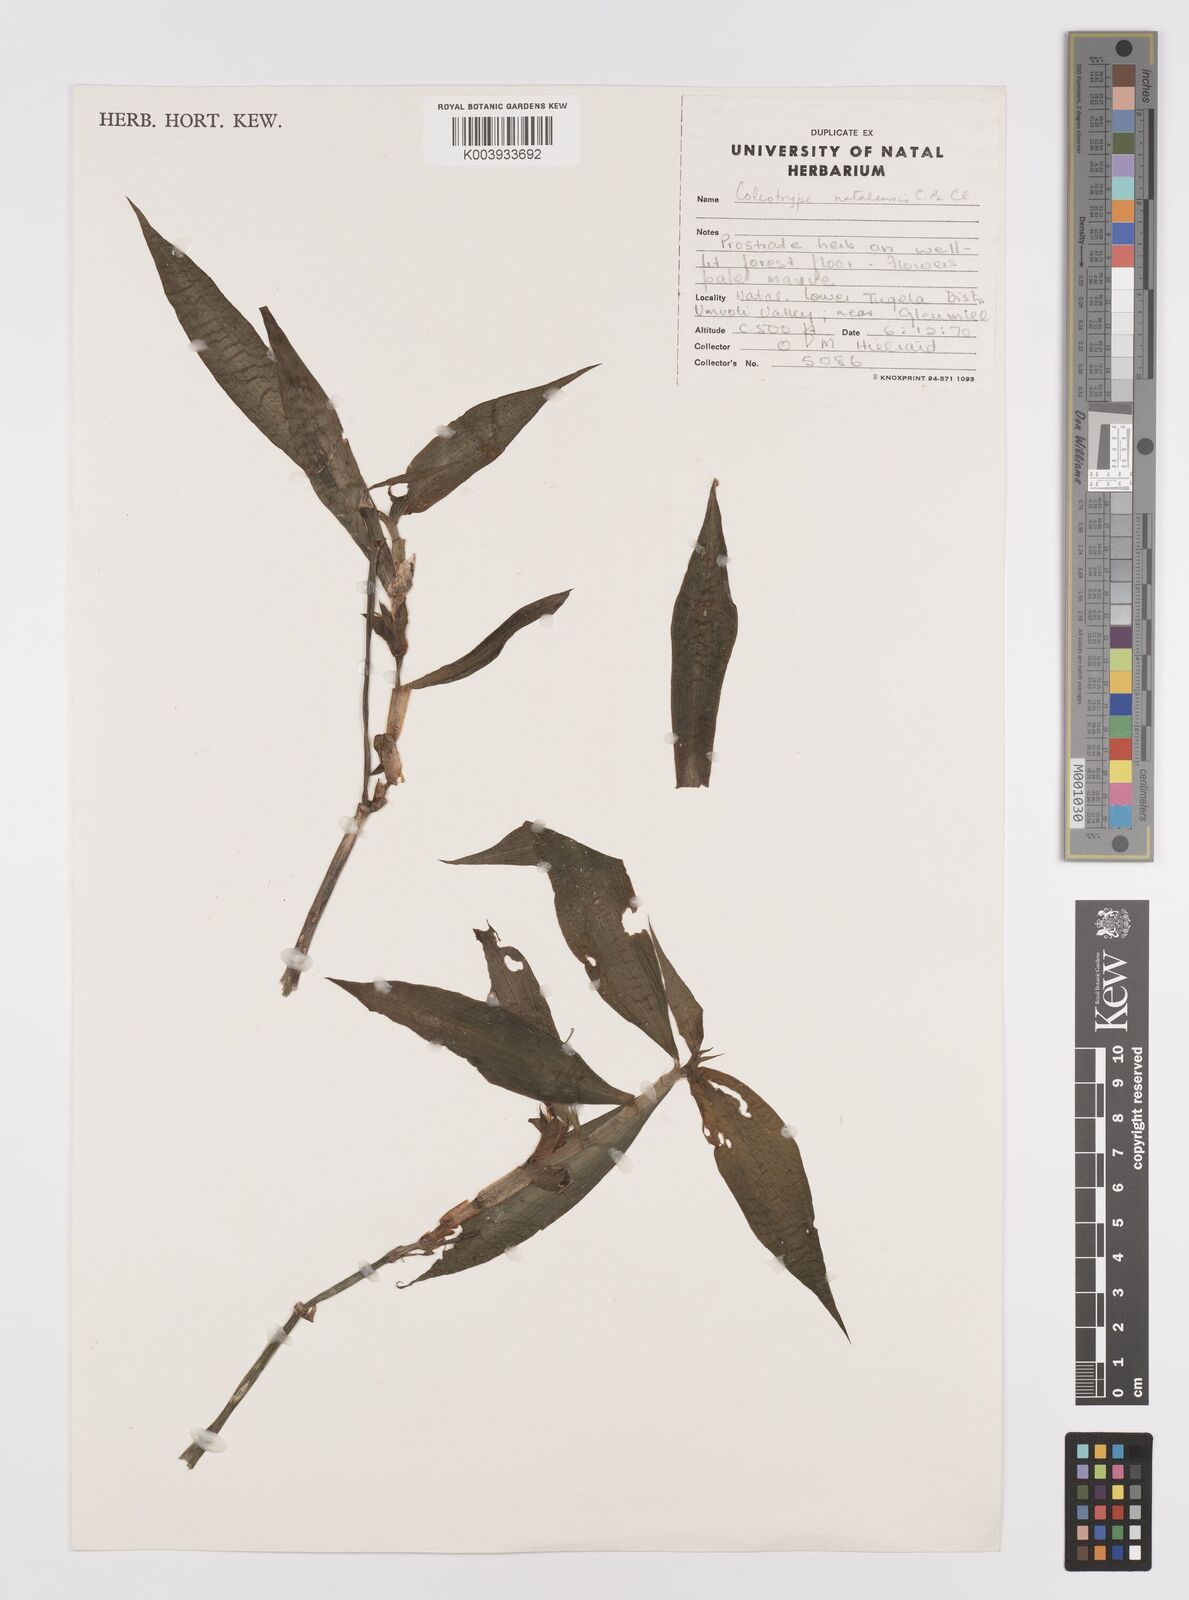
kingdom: Plantae
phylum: Tracheophyta
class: Liliopsida
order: Commelinales
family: Commelinaceae
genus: Coleotrype
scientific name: Coleotrype natalensis
